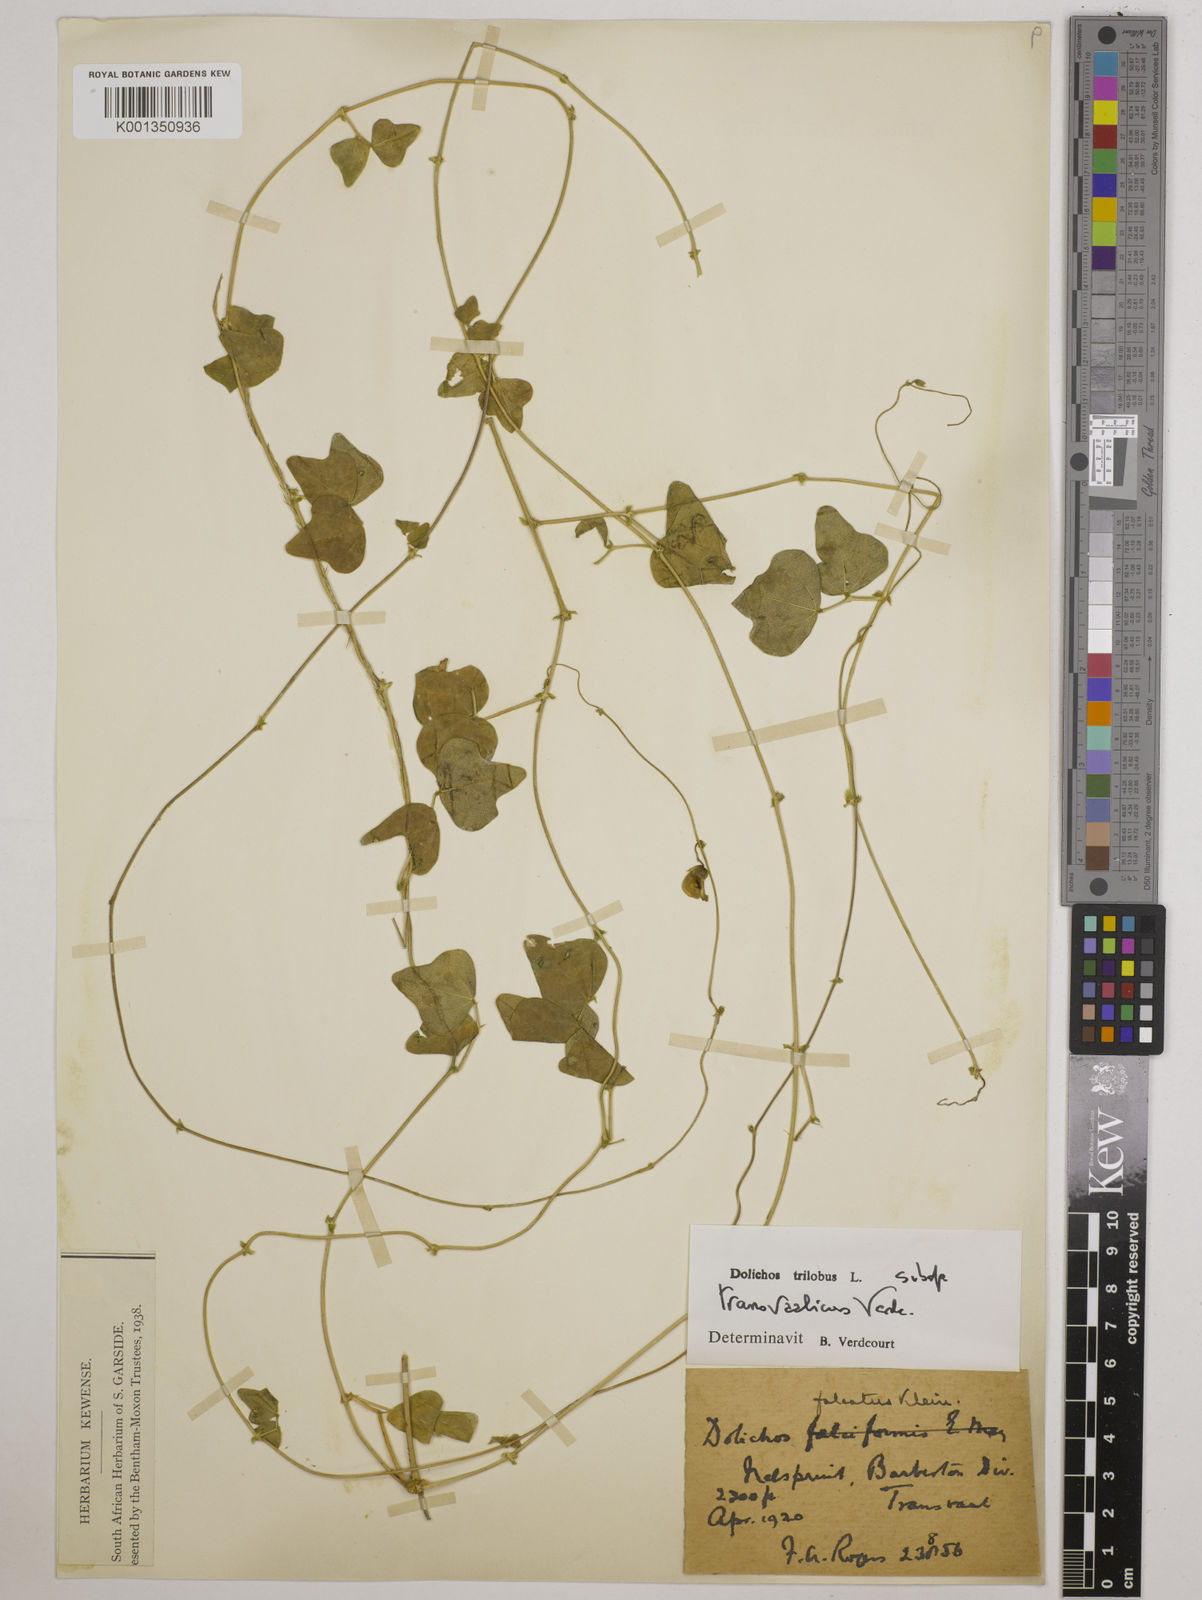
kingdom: Plantae
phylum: Tracheophyta
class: Magnoliopsida
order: Fabales
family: Fabaceae
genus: Dolichos
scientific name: Dolichos
